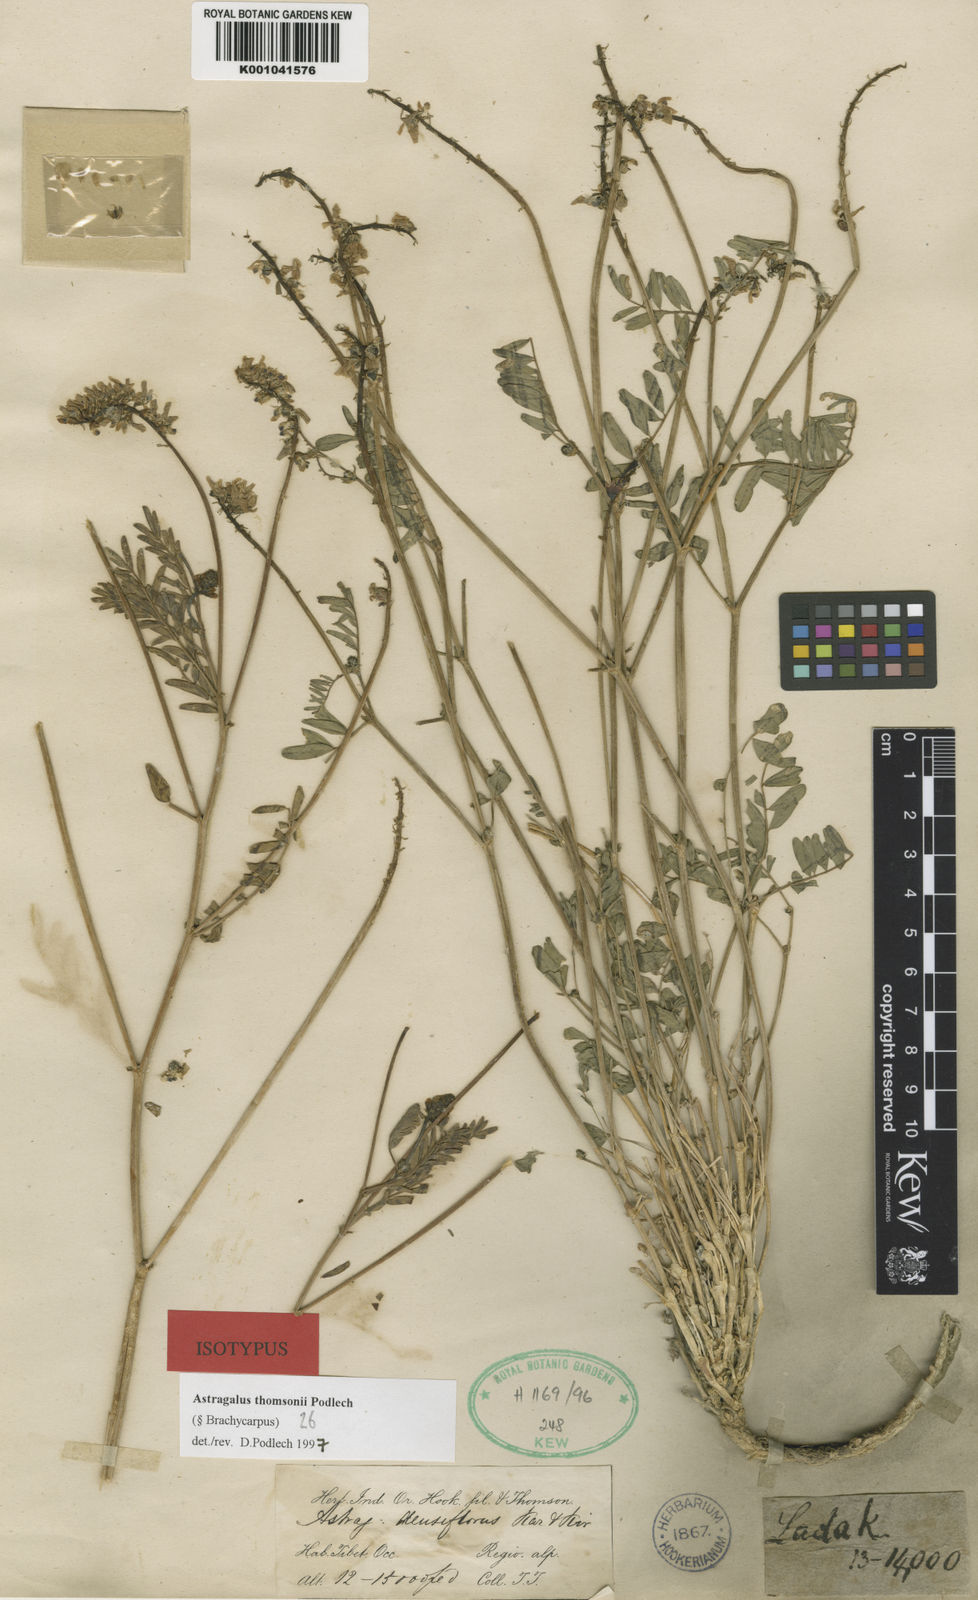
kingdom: Plantae
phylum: Tracheophyta
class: Magnoliopsida
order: Fabales
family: Fabaceae
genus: Astragalus
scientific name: Astragalus thomsonii
